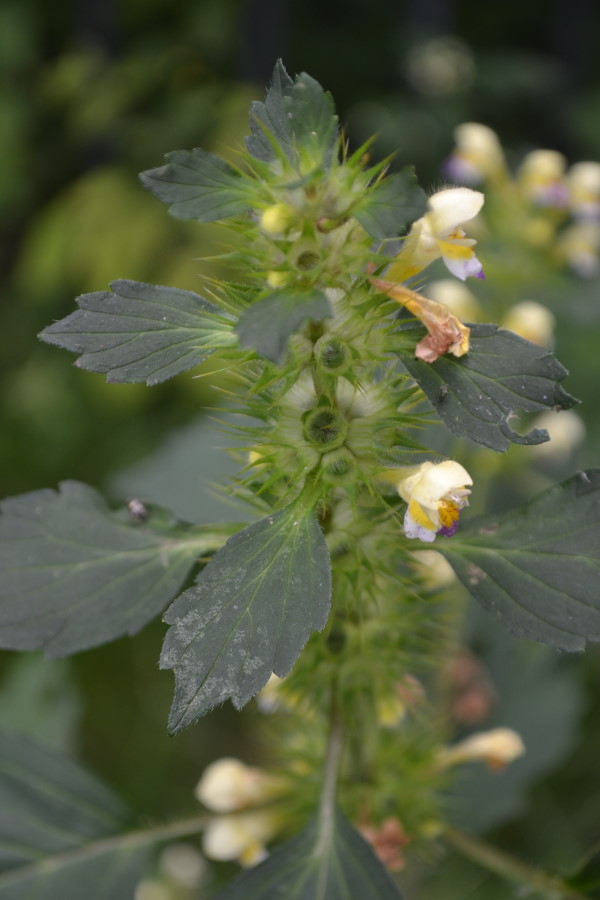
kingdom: Plantae
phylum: Tracheophyta
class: Magnoliopsida
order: Lamiales
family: Lamiaceae
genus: Galeopsis
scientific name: Galeopsis speciosa
